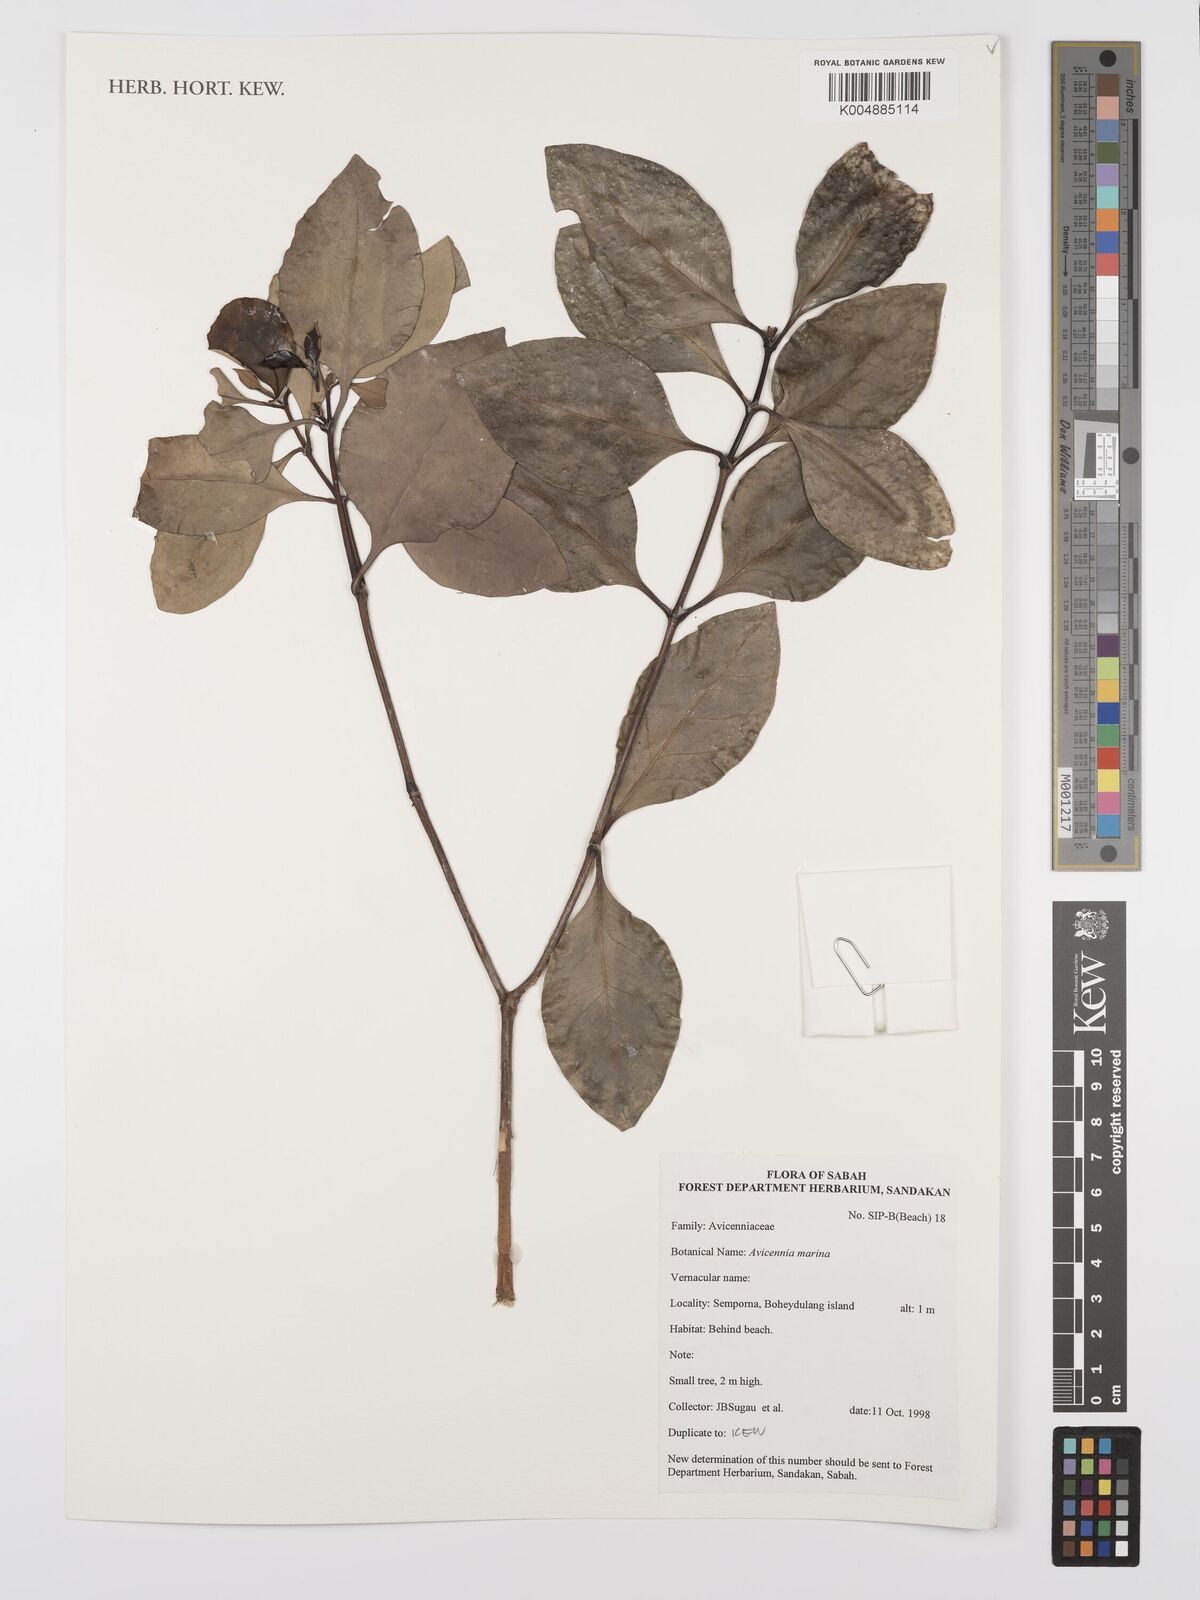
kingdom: Plantae
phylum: Tracheophyta
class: Magnoliopsida
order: Lamiales
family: Acanthaceae
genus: Avicennia
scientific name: Avicennia marina
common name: Gray mangrove
